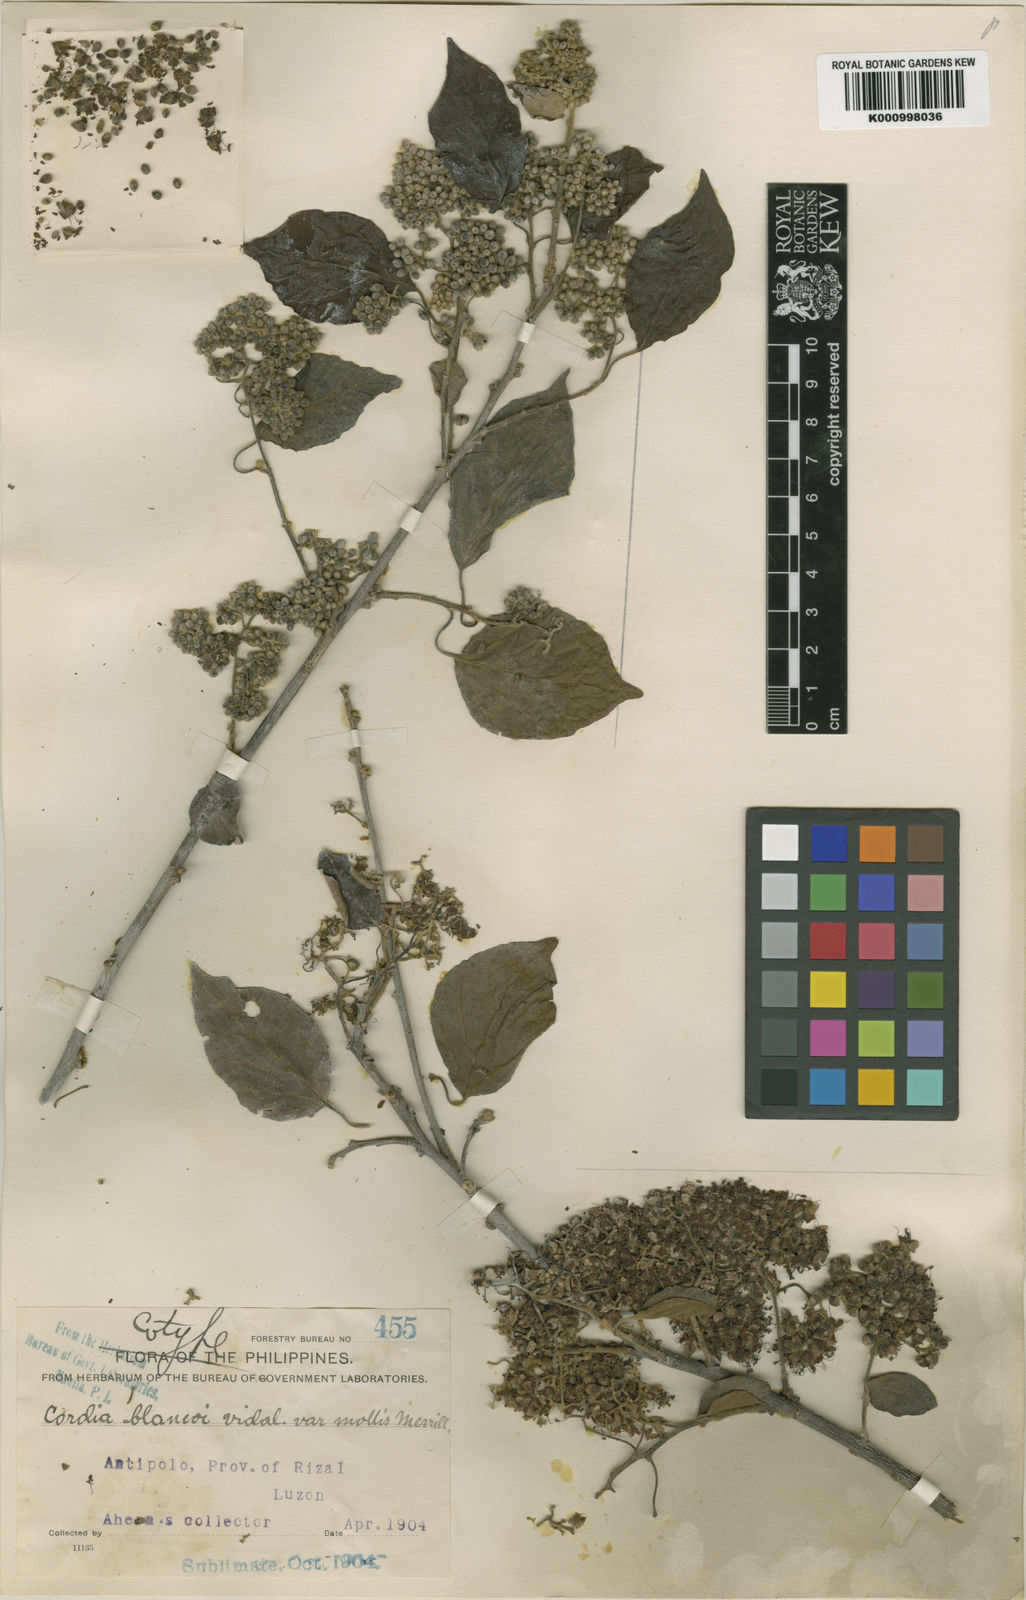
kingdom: Plantae
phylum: Tracheophyta
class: Magnoliopsida
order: Boraginales
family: Cordiaceae
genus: Cordia
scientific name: Cordia dichotoma
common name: Fragrant manjack
